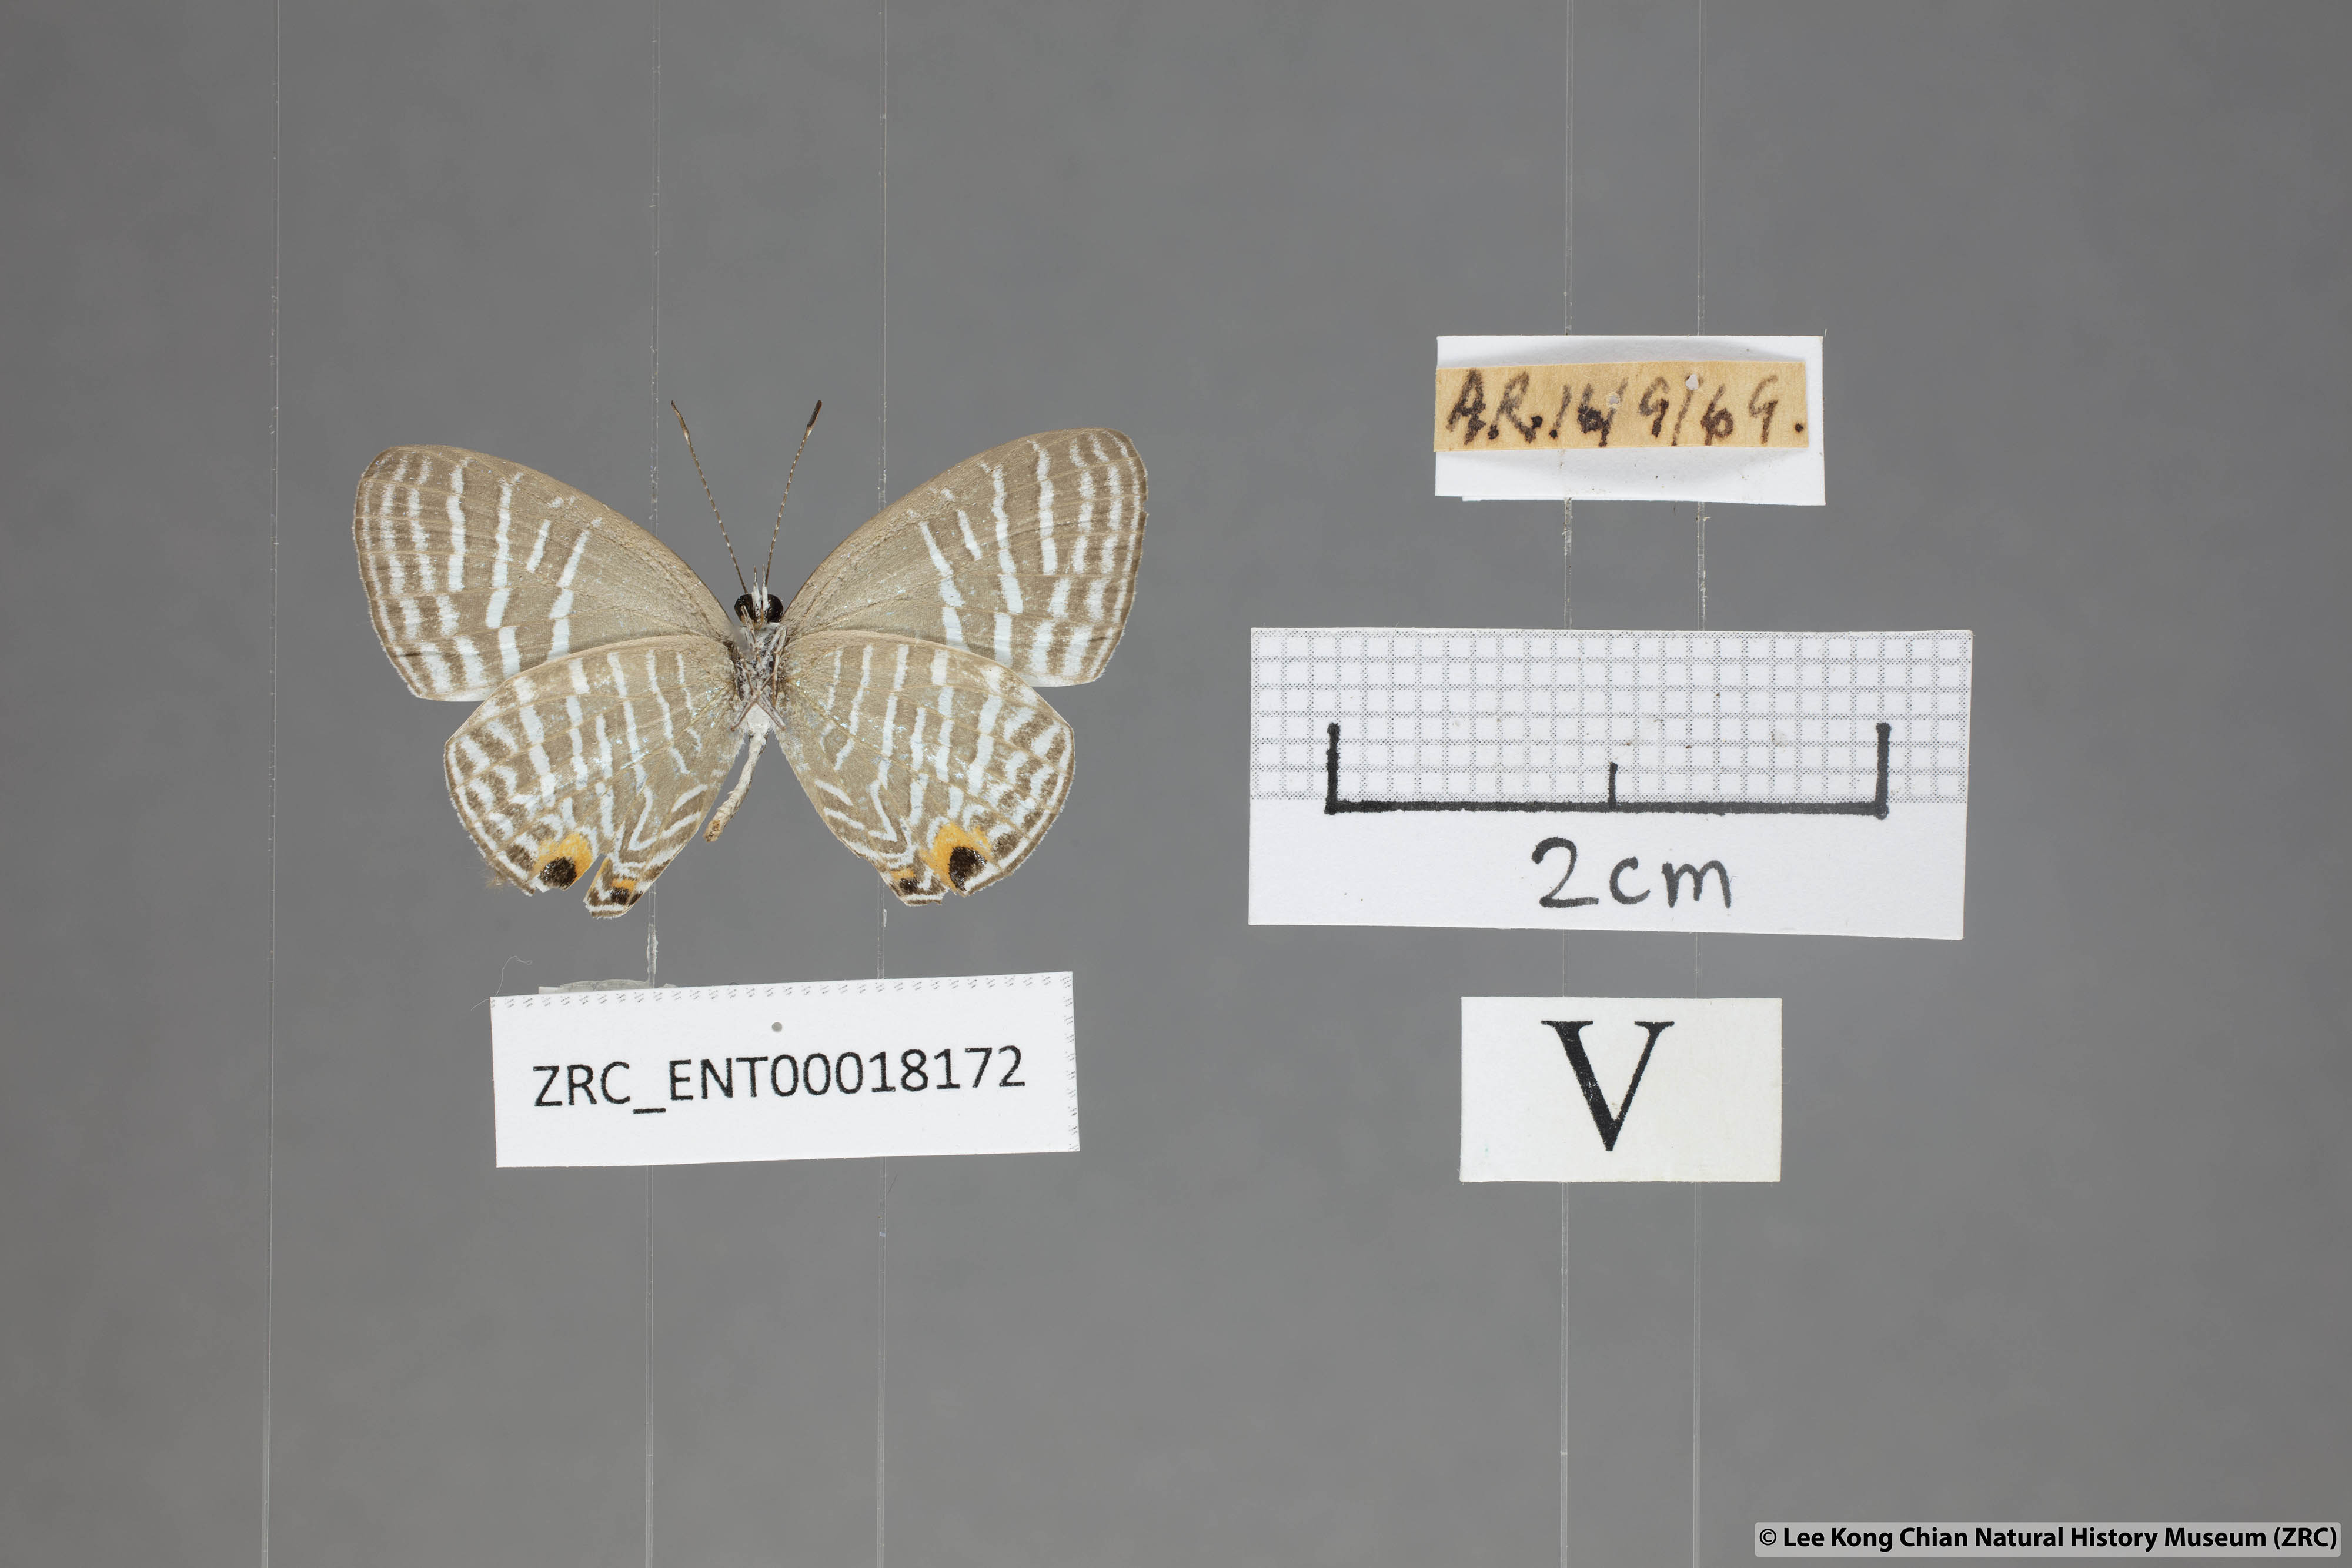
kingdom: Animalia
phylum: Arthropoda
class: Insecta
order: Lepidoptera
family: Lycaenidae
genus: Jamides
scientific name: Jamides pura
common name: White cerulean
